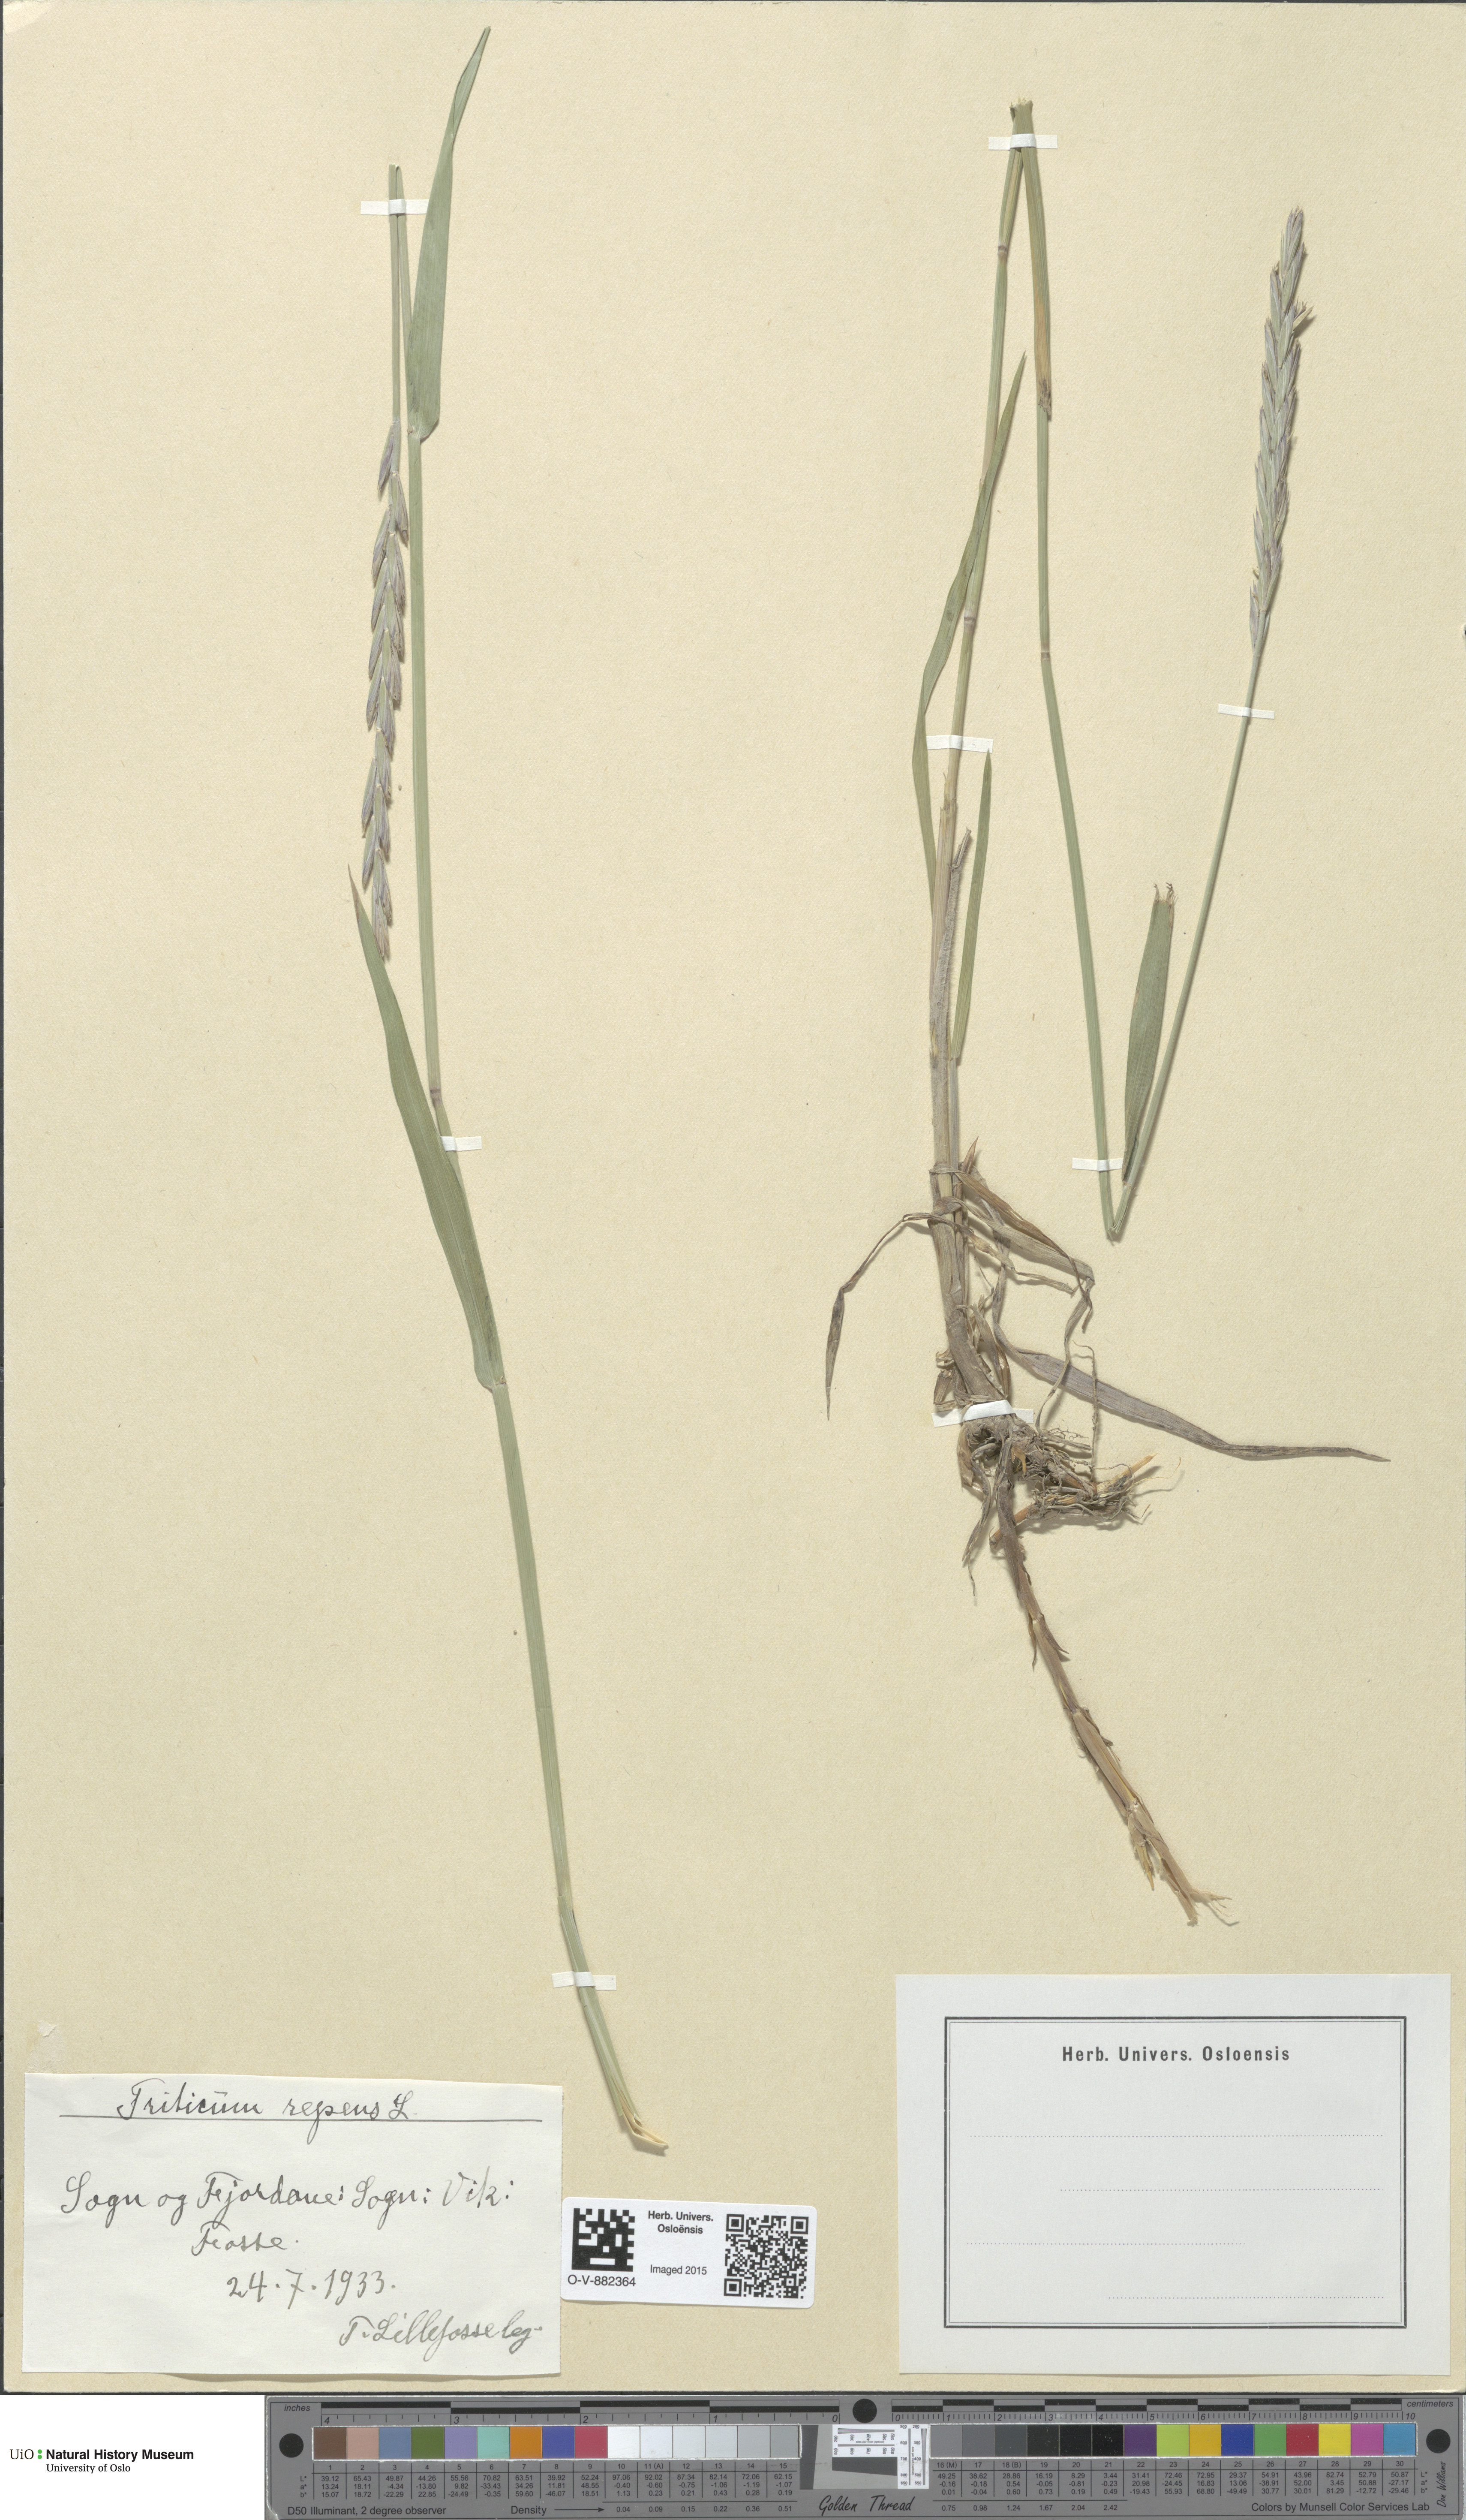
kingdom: Plantae
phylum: Tracheophyta
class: Liliopsida
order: Poales
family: Poaceae
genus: Elymus
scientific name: Elymus repens
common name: Quackgrass
